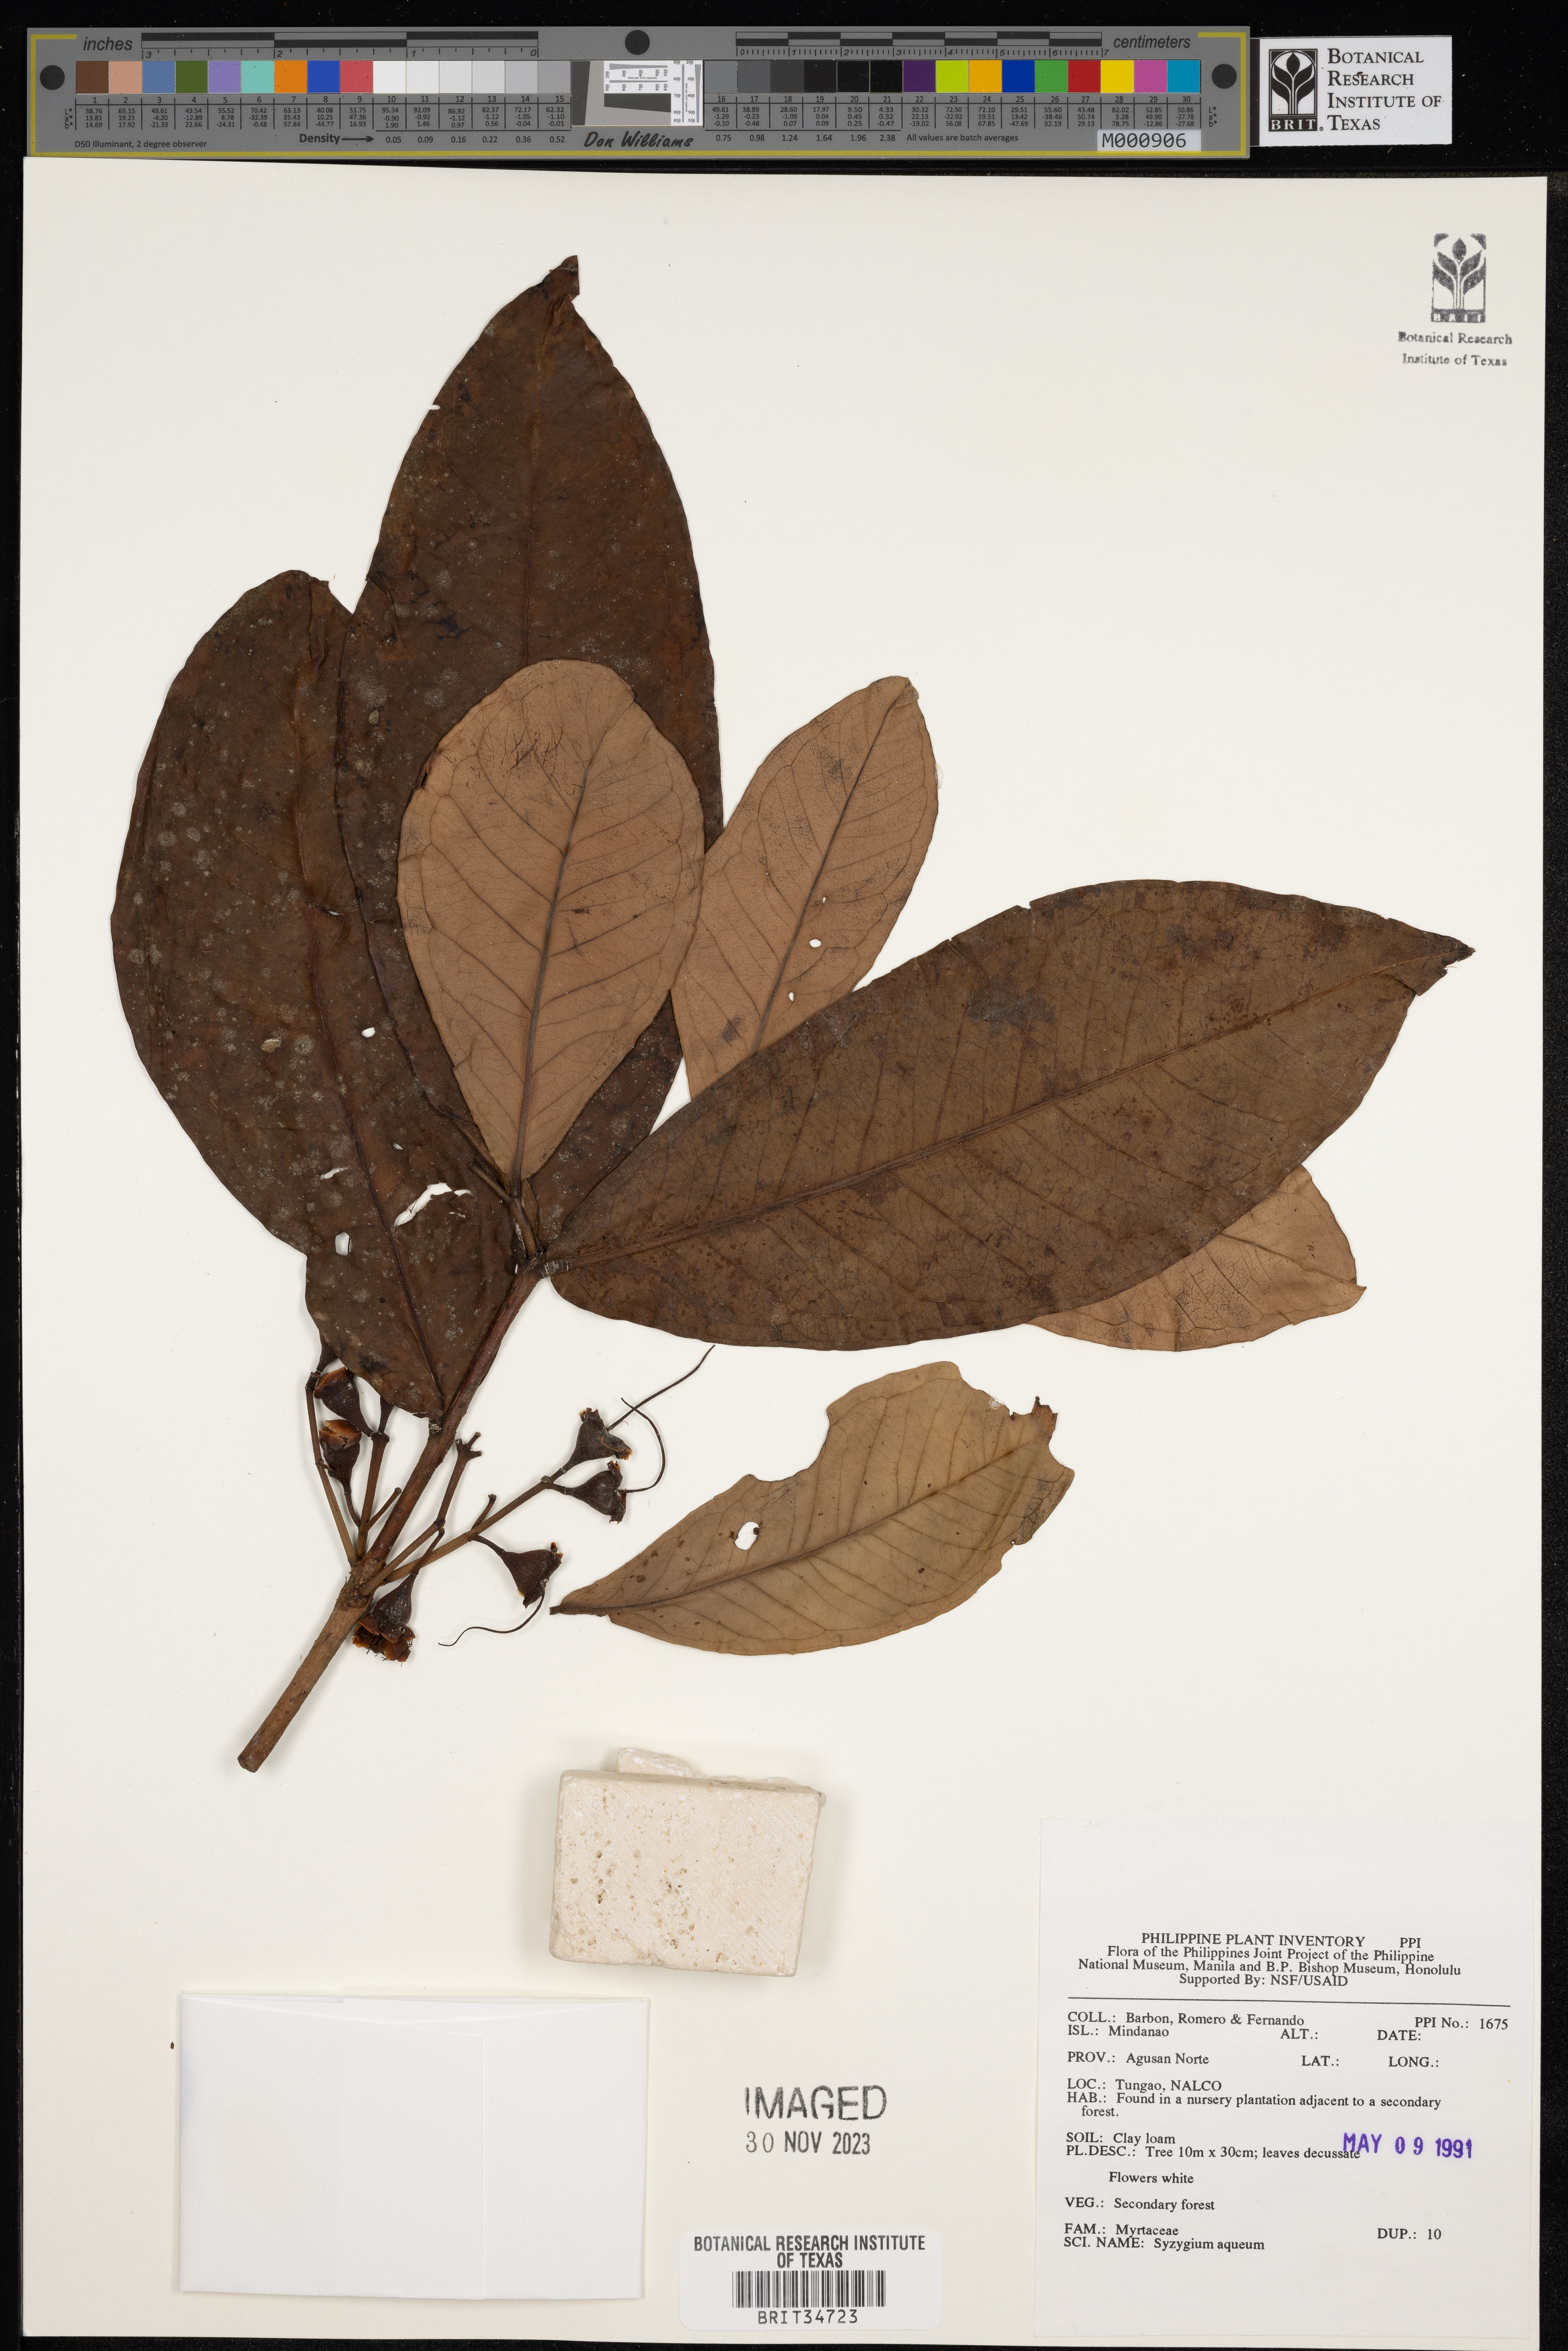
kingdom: Plantae
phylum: Tracheophyta
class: Magnoliopsida
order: Myrtales
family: Myrtaceae
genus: Syzygium
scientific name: Syzygium aqueum
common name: Water-apple
